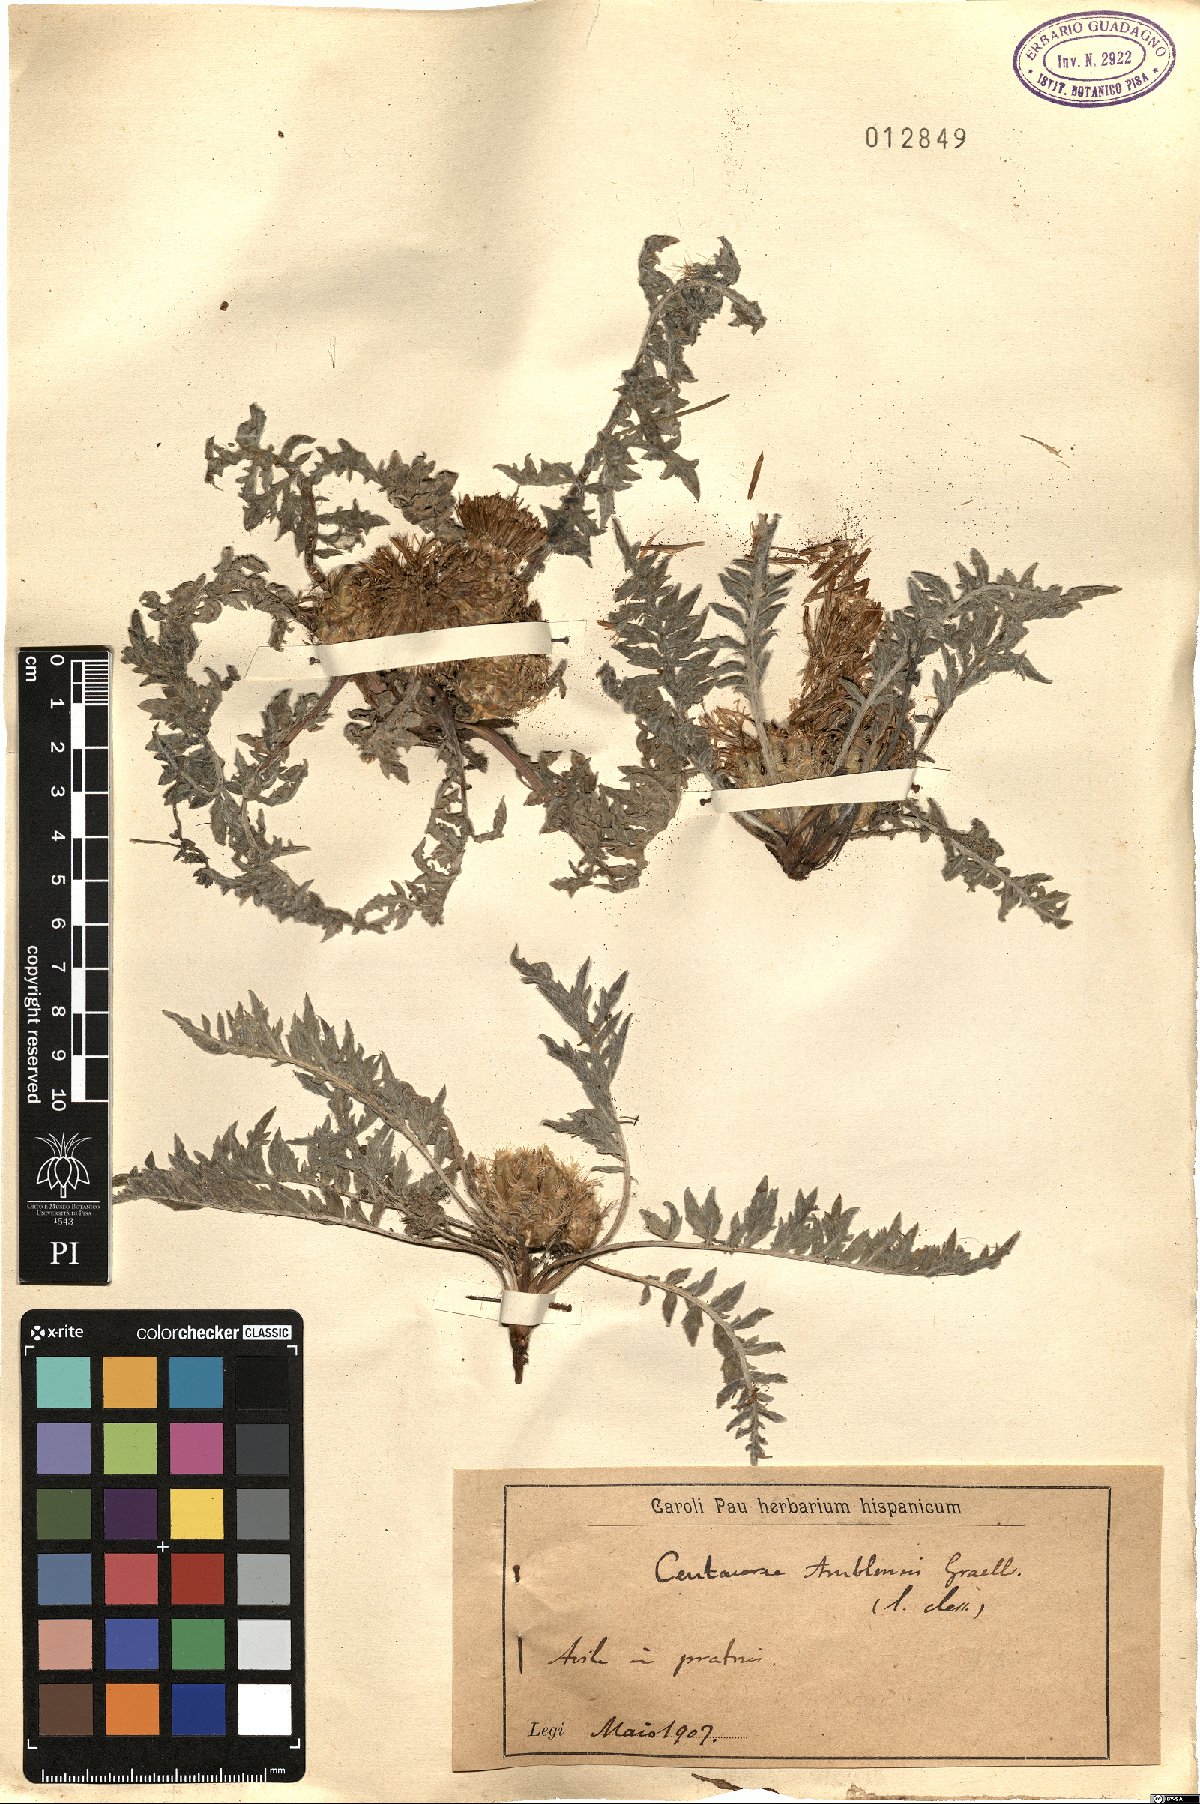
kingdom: Plantae
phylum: Tracheophyta
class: Magnoliopsida
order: Asterales
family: Asteraceae
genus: Centaurea
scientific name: Centaurea amblensis
